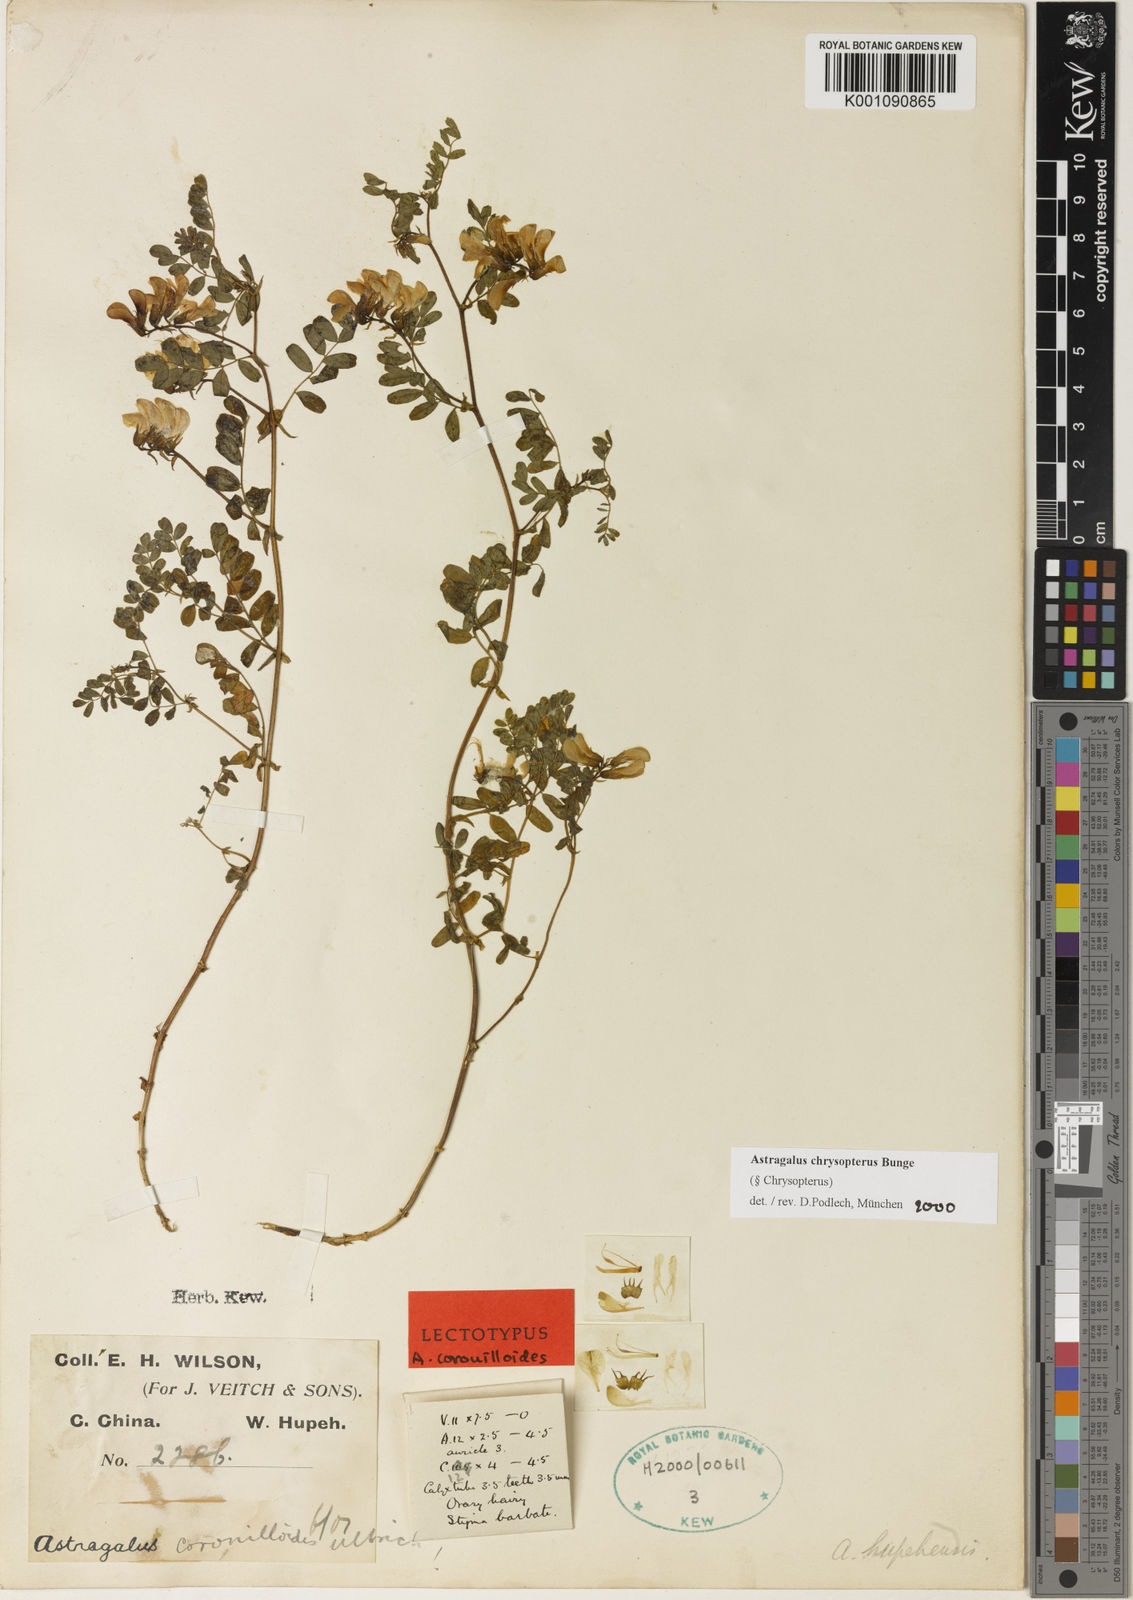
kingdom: Plantae
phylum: Tracheophyta
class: Magnoliopsida
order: Fabales
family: Fabaceae
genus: Astragalus
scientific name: Astragalus
